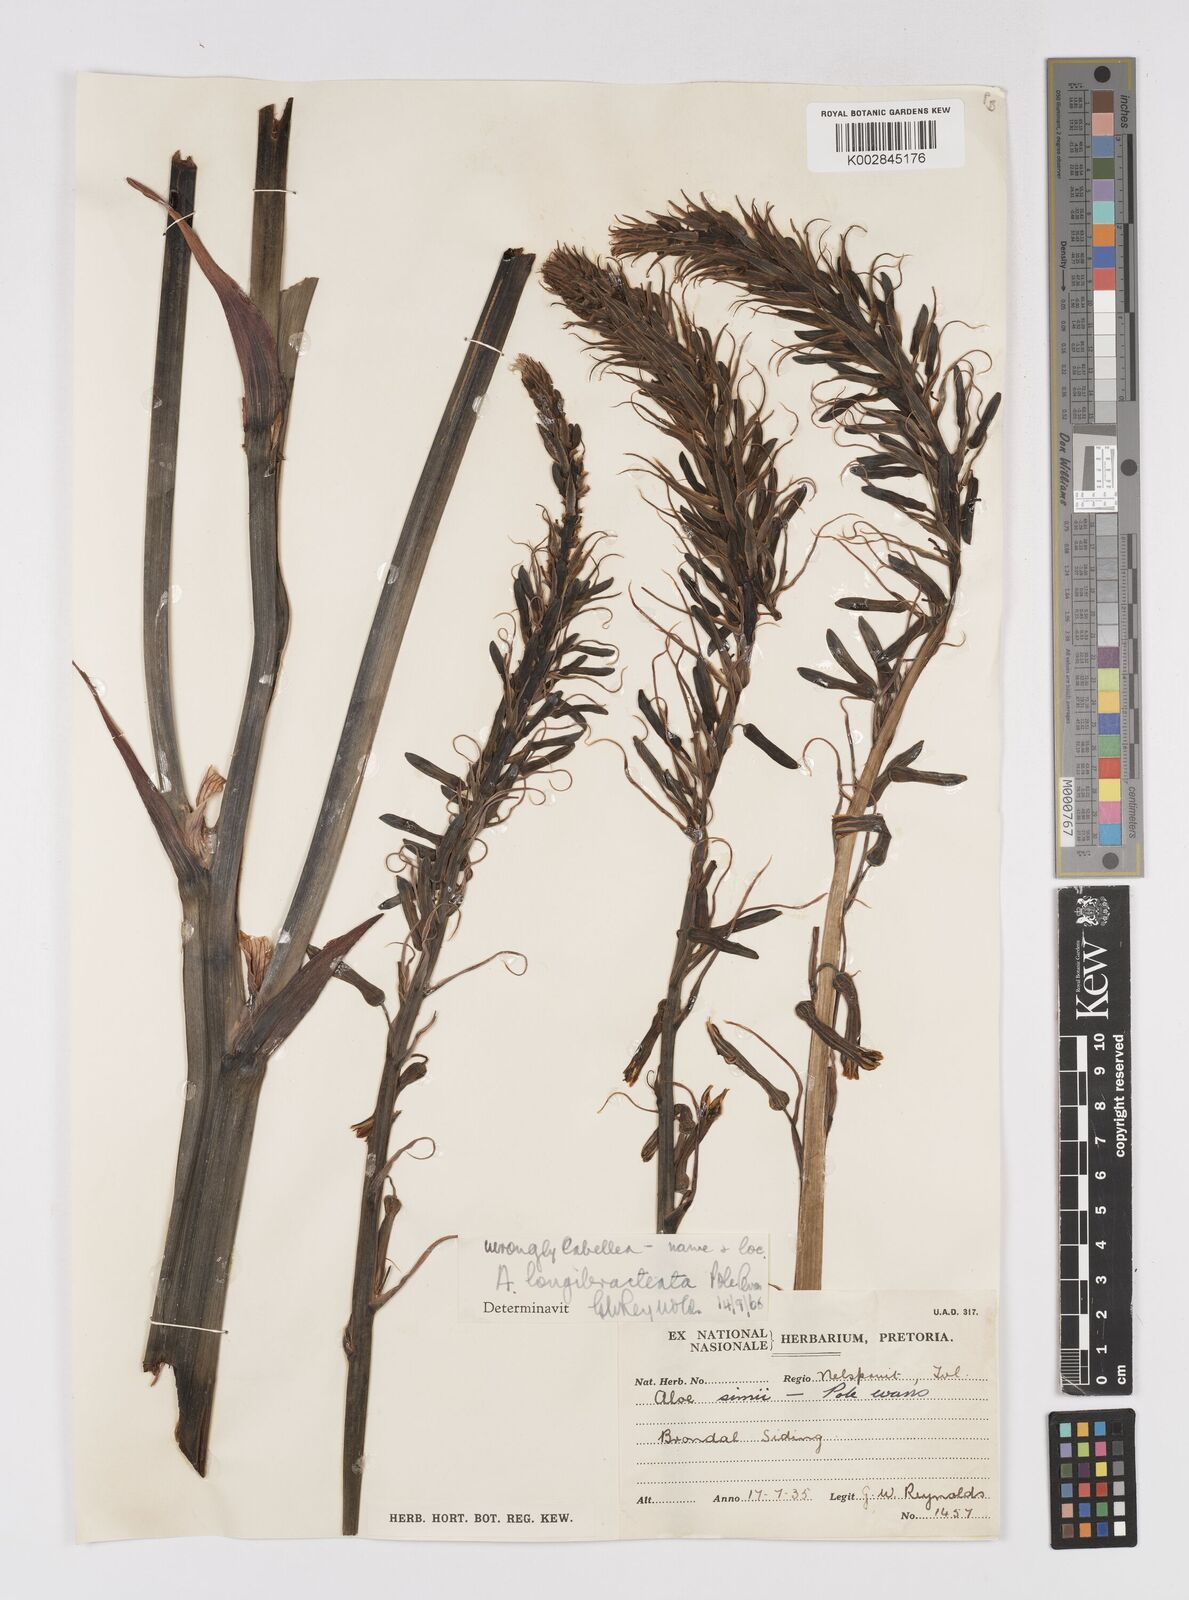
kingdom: Plantae
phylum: Tracheophyta
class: Liliopsida
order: Asparagales
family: Asphodelaceae
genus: Aloe
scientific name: Aloe longibracteata
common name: Limpopo spotted aloe
